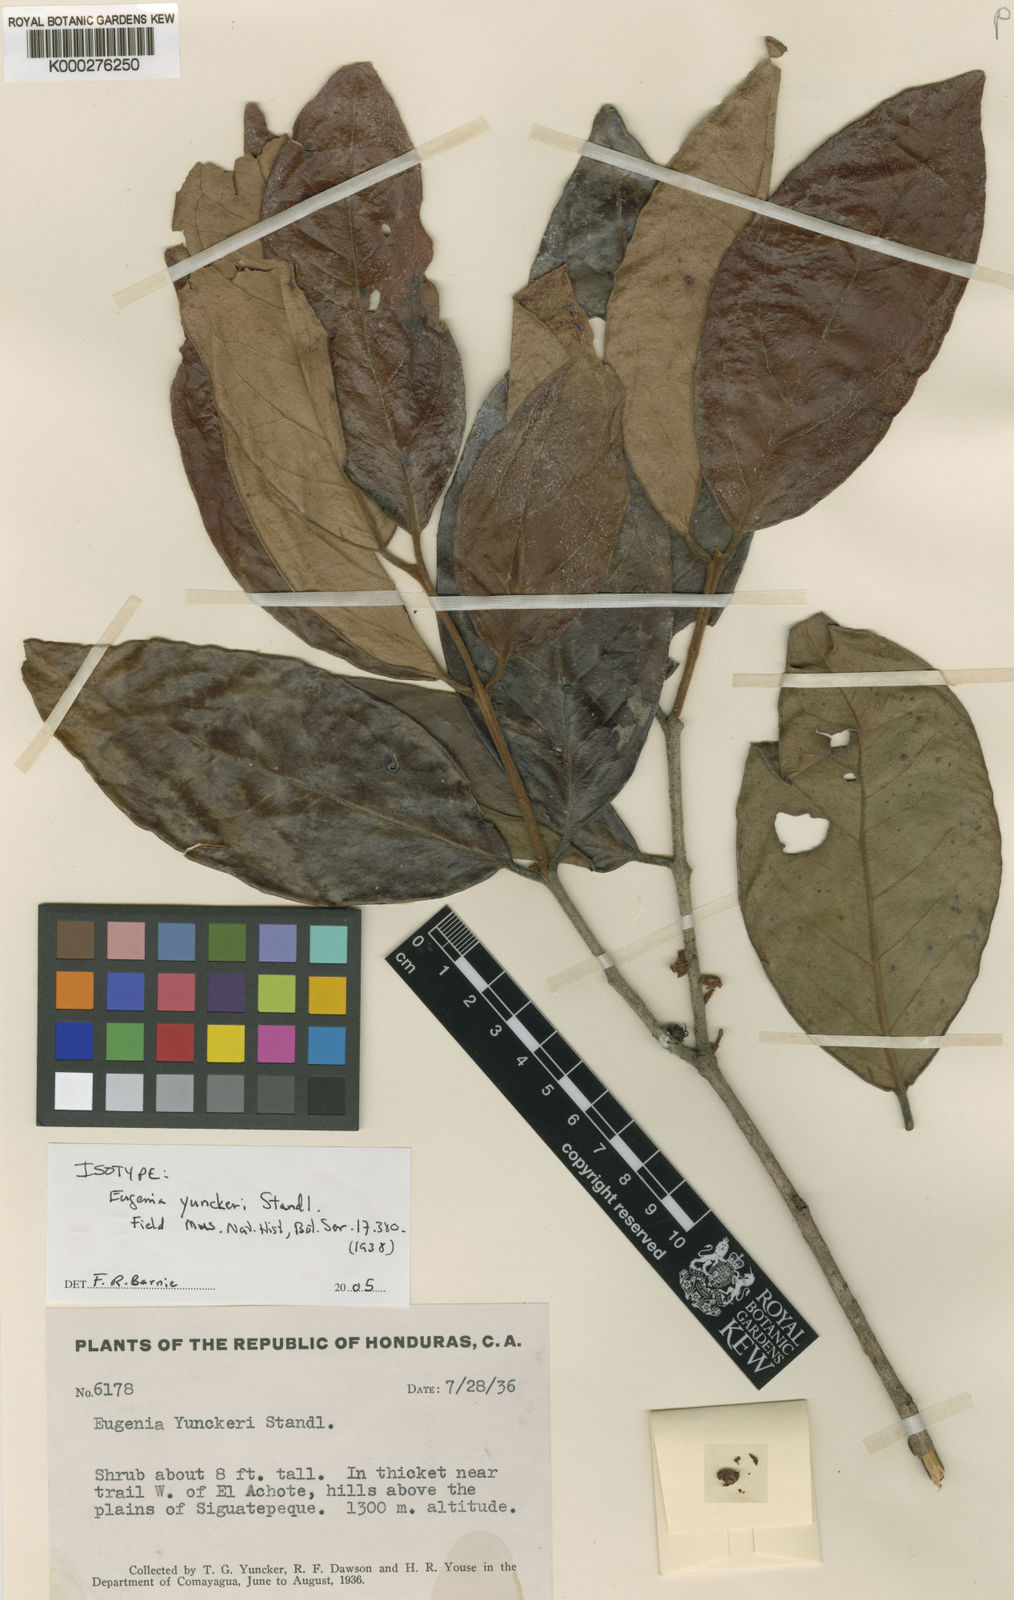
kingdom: Plantae
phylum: Tracheophyta
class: Magnoliopsida
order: Myrtales
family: Myrtaceae
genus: Eugenia
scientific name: Eugenia yunckeri
